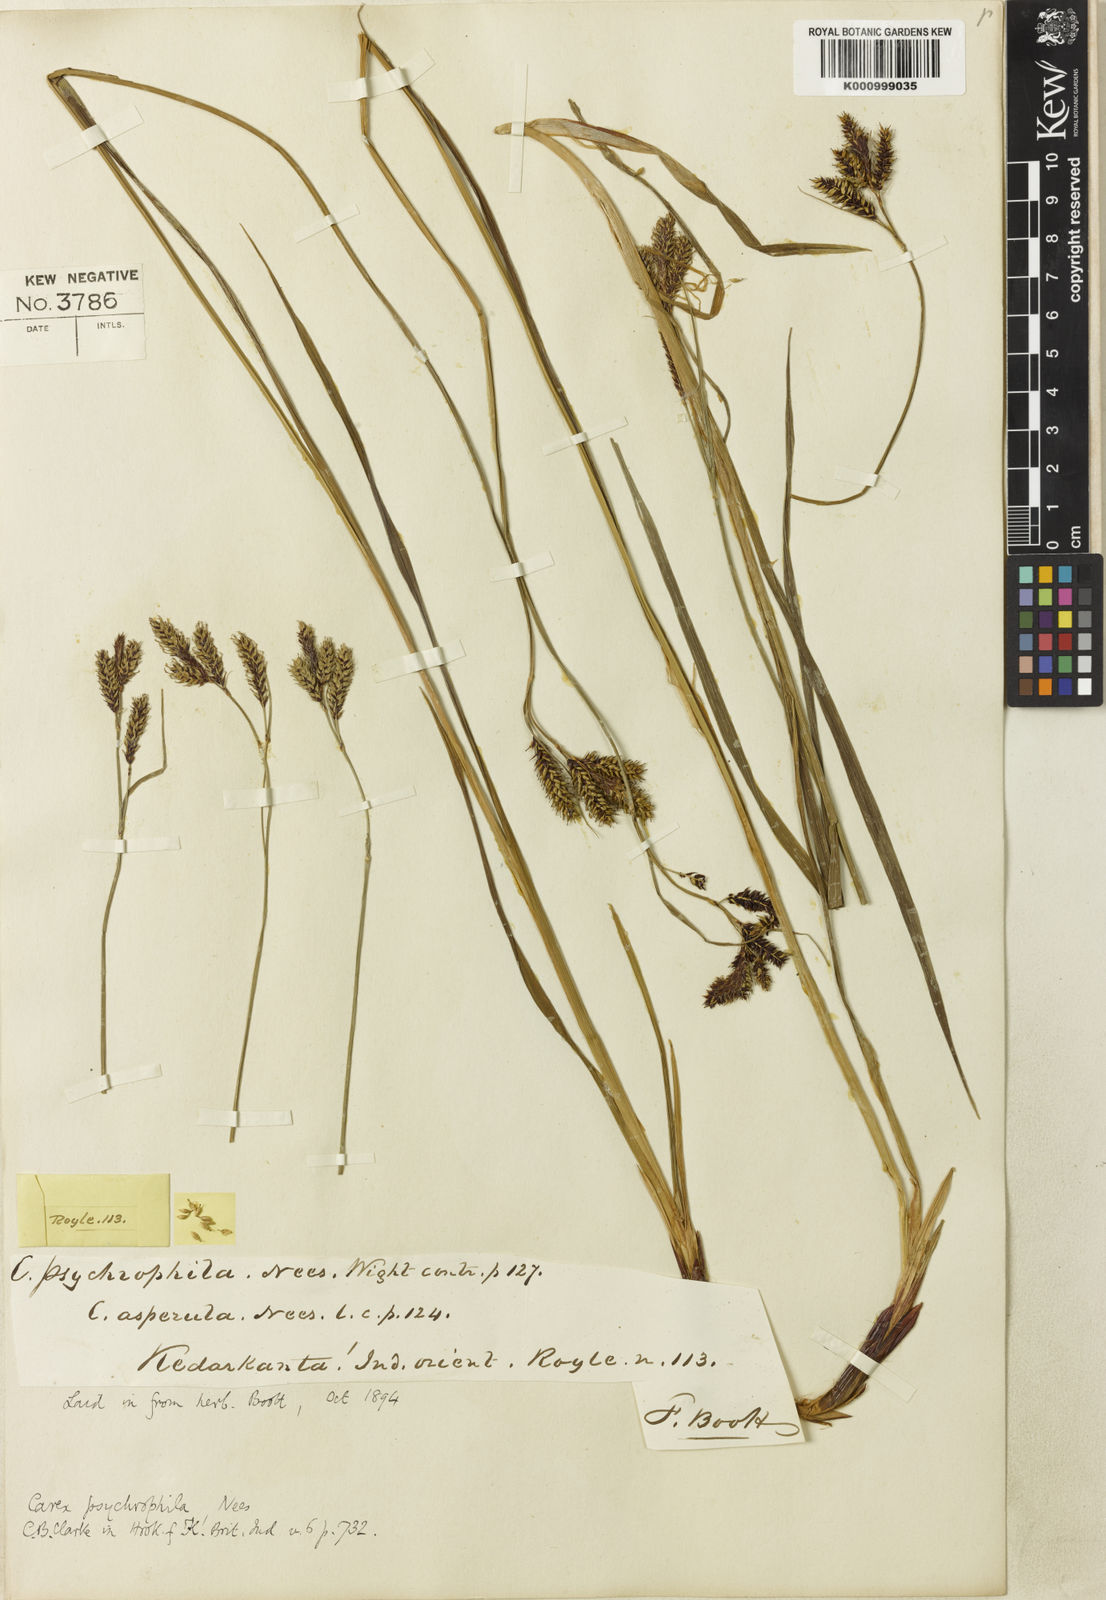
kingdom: Plantae
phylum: Tracheophyta
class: Liliopsida
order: Poales
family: Cyperaceae
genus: Carex
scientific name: Carex psychrophila
